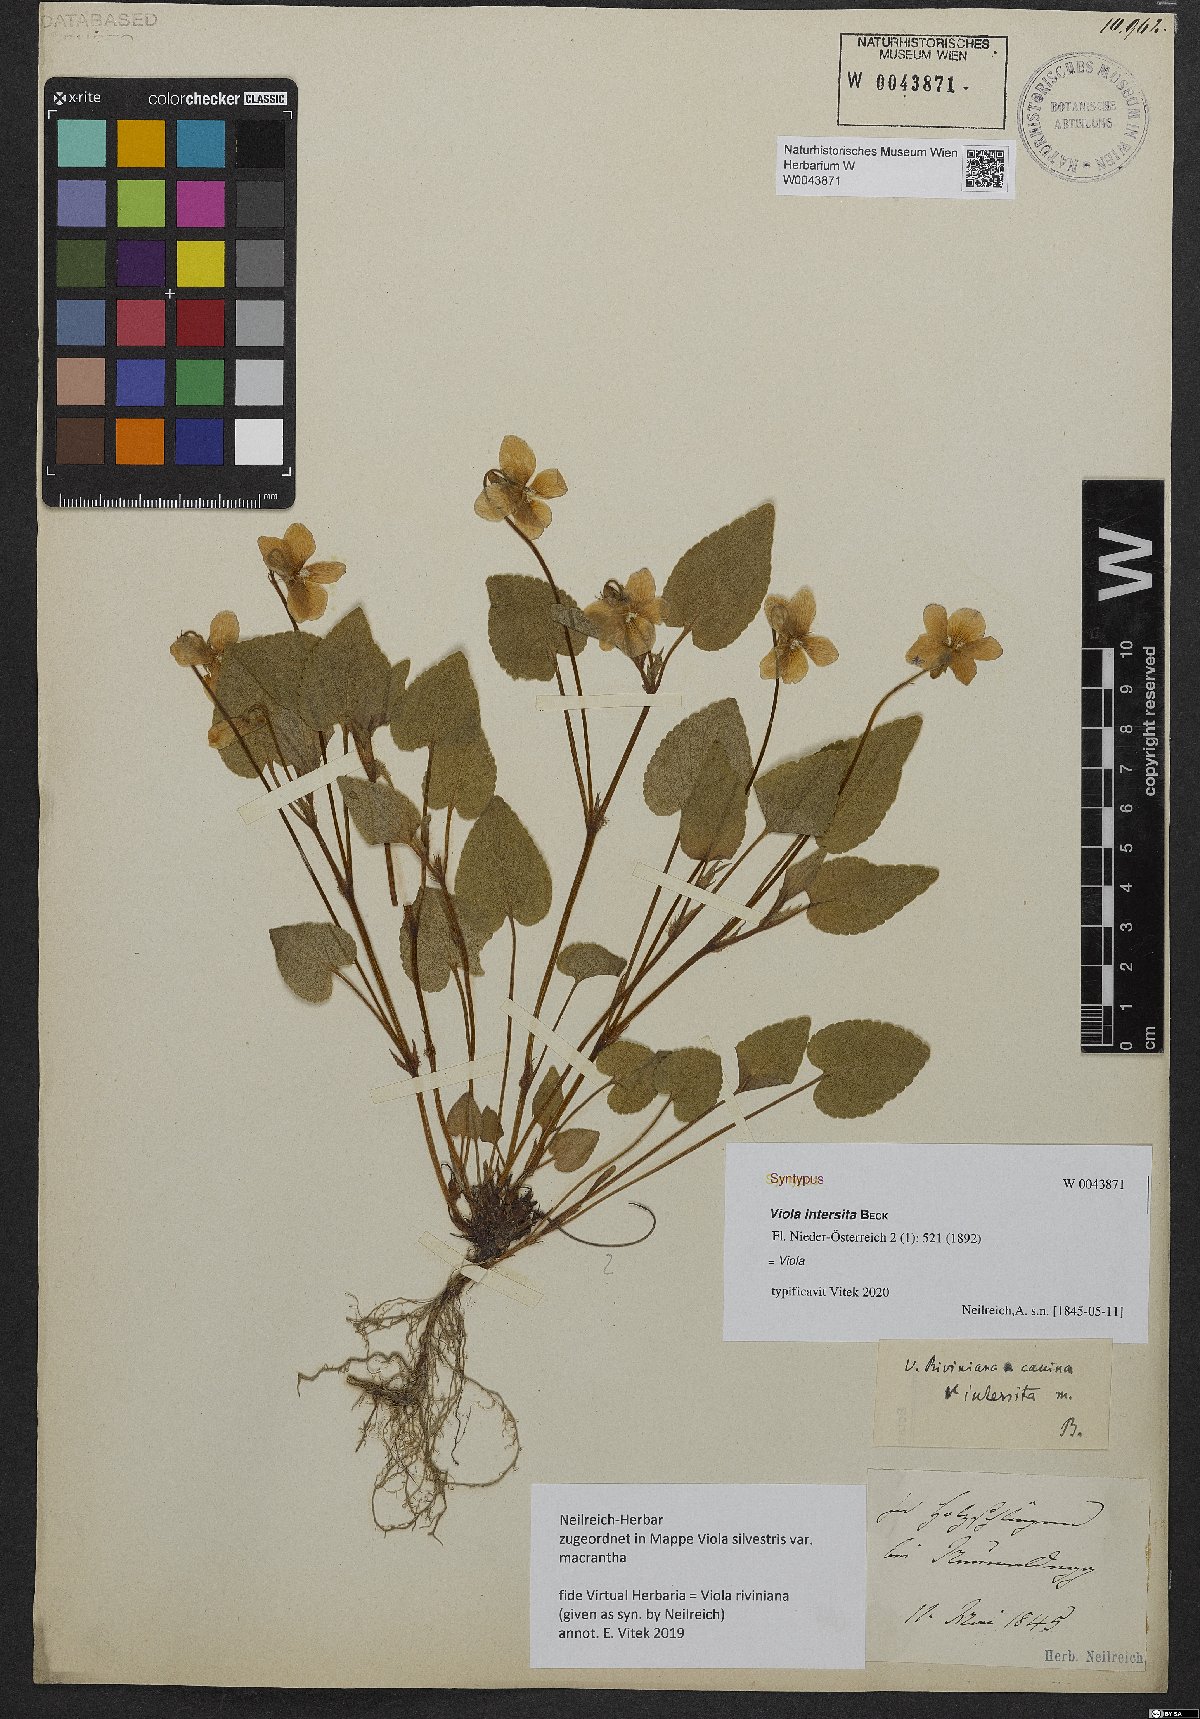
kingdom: Plantae
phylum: Tracheophyta
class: Magnoliopsida
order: Malpighiales
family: Violaceae
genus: Viola
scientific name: Viola kiliensis
